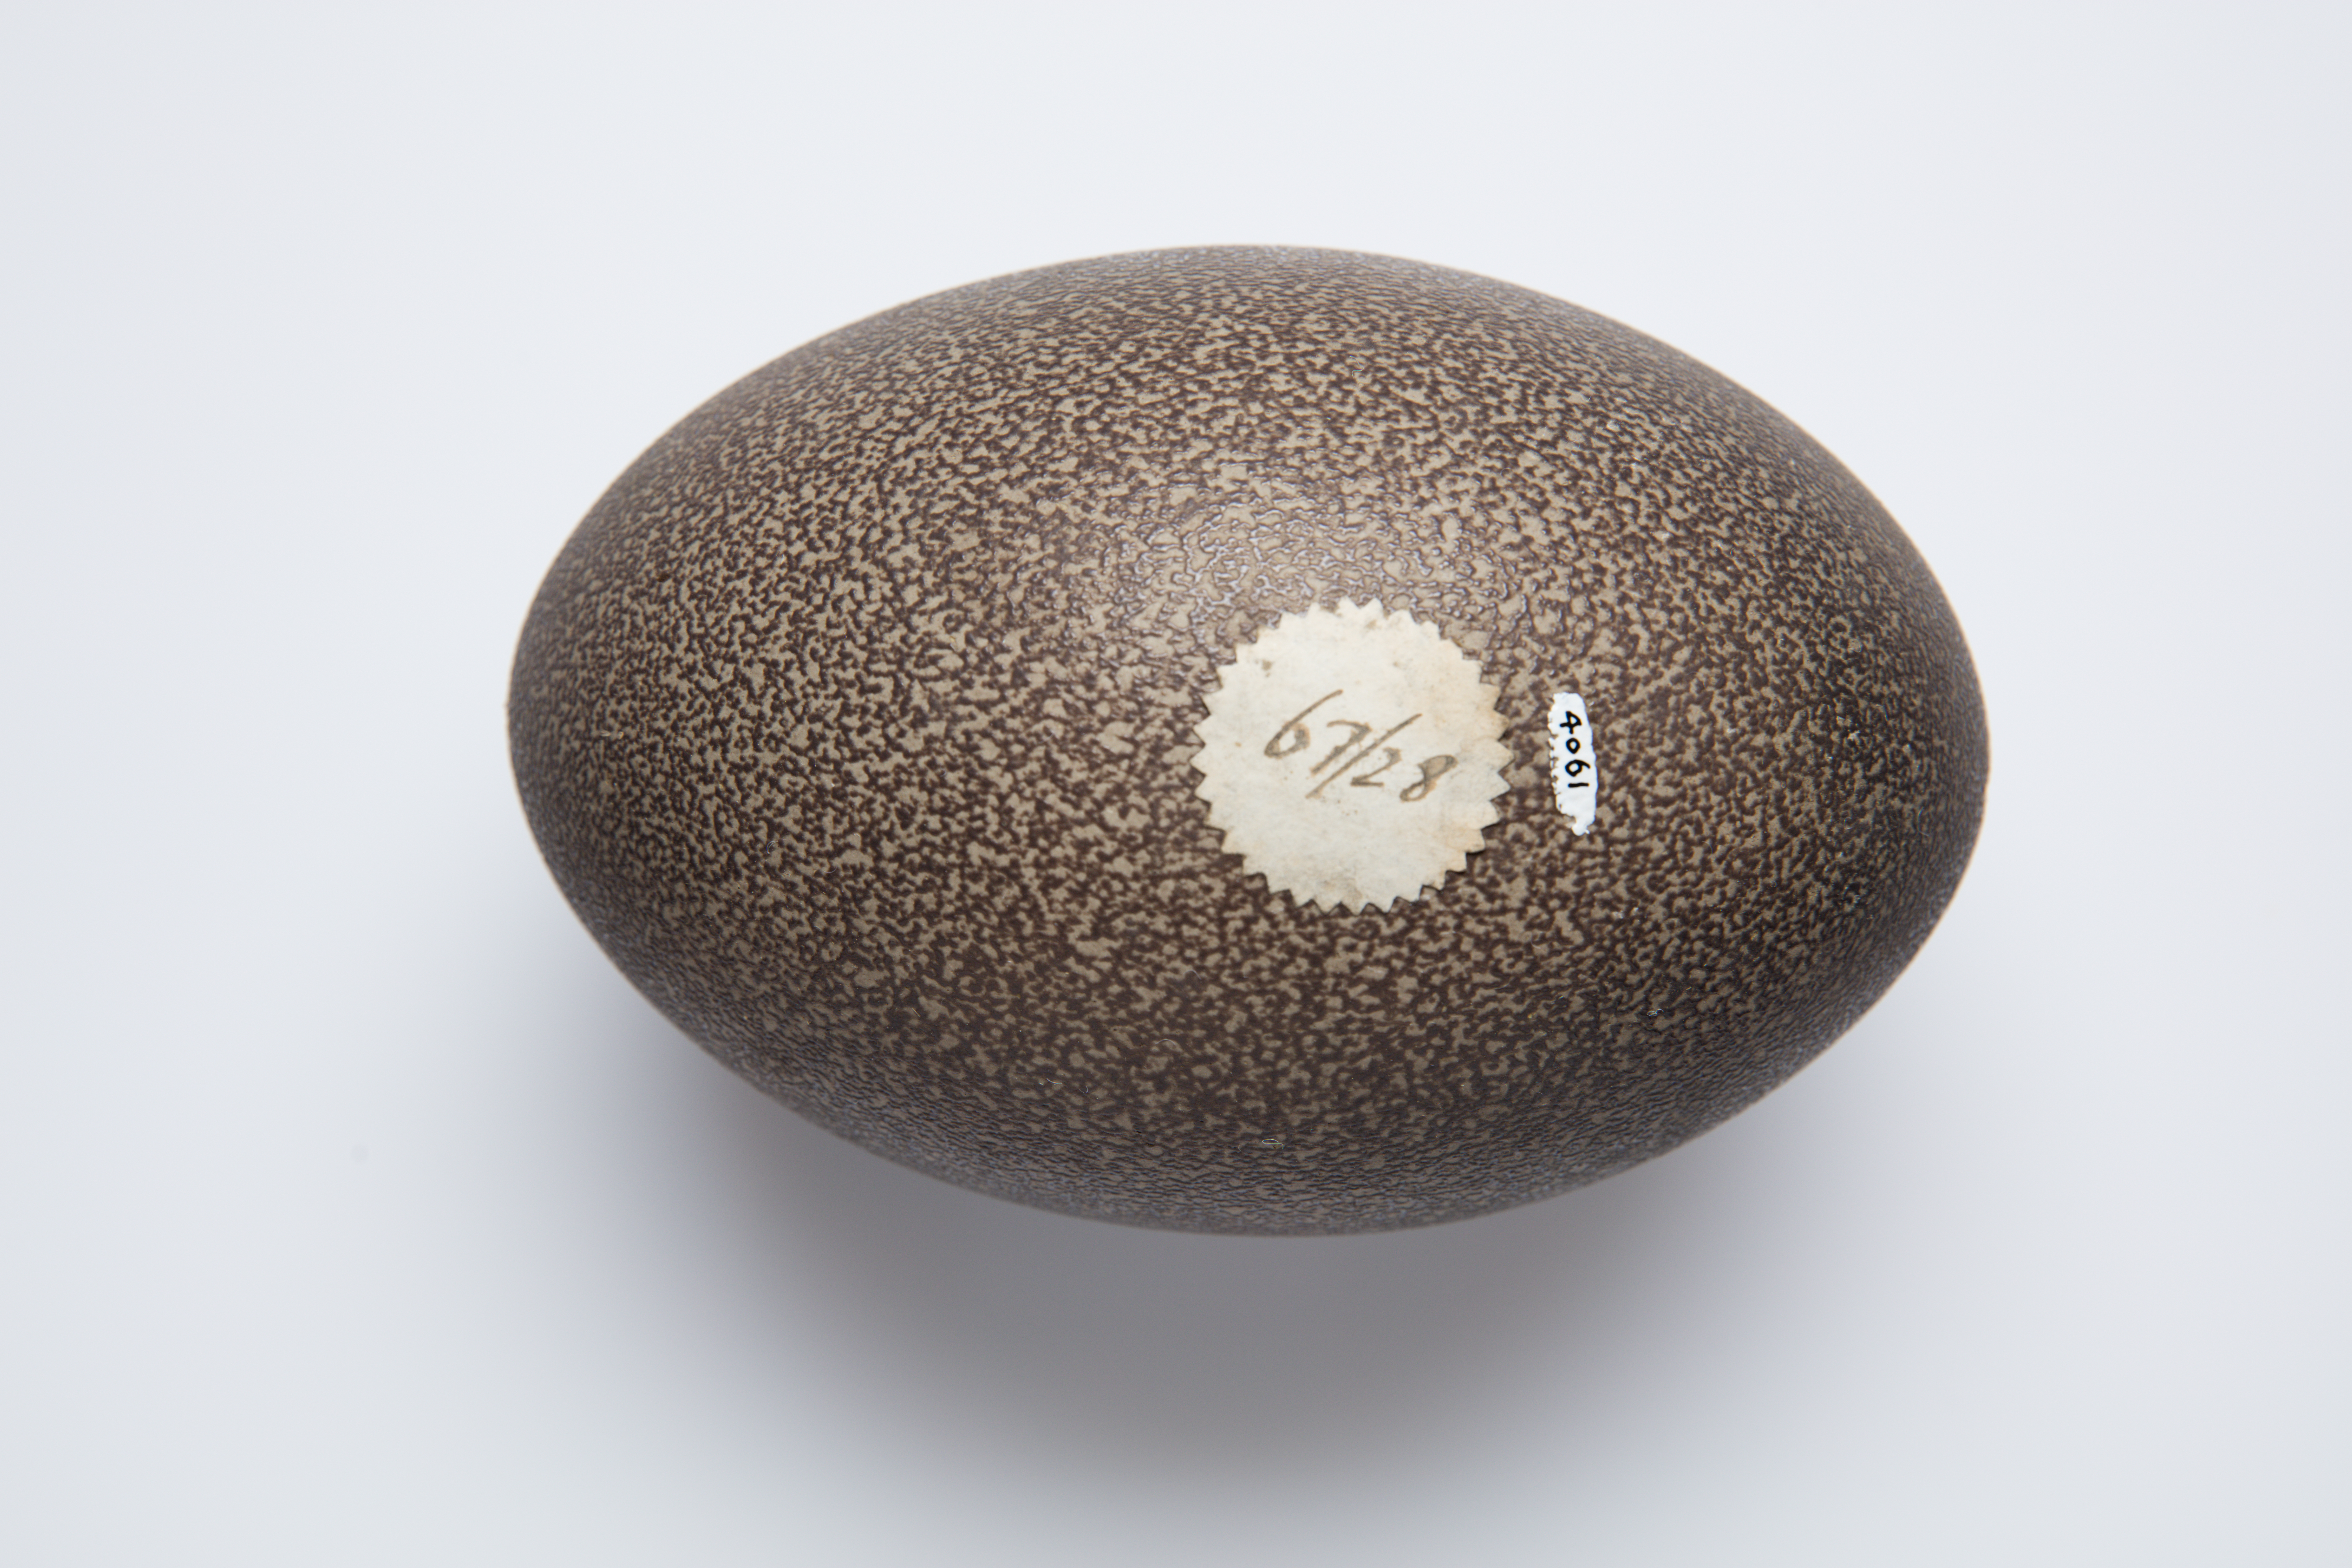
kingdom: Animalia
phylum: Chordata
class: Aves
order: Casuariiformes
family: Dromaiidae
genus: Dromaius
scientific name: Dromaius novaehollandiae
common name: Emu
